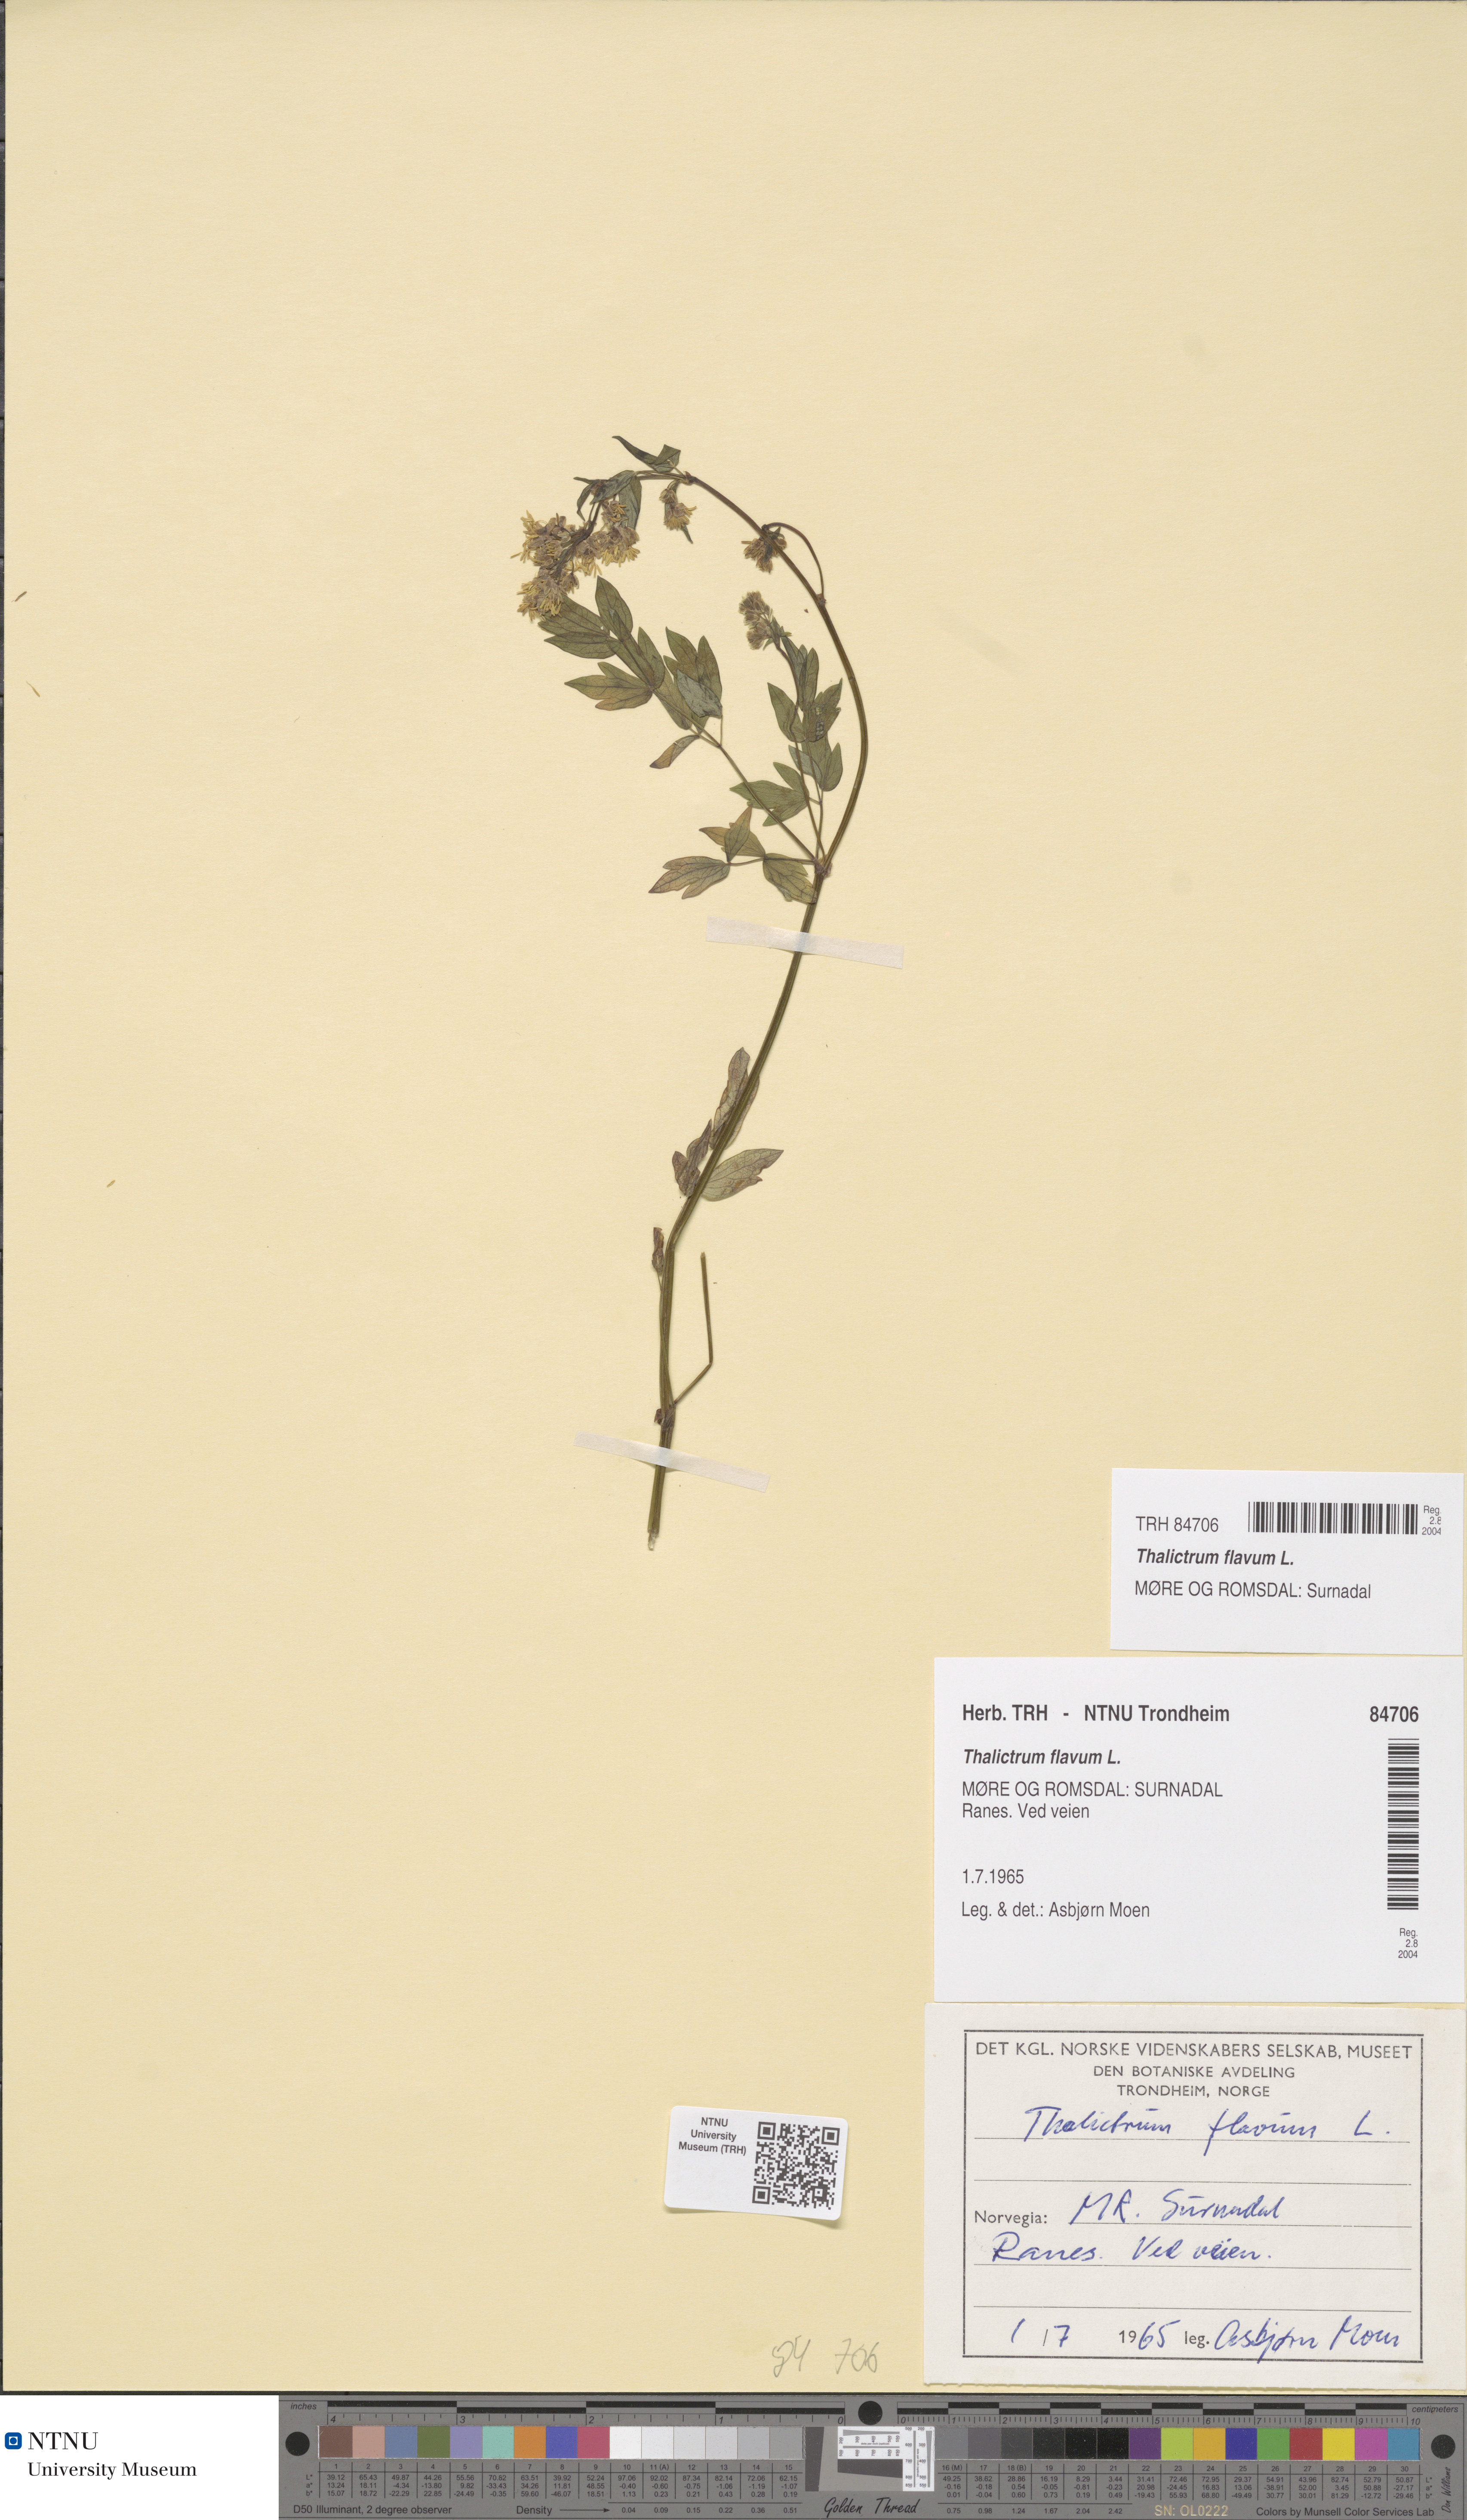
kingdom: Plantae
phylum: Tracheophyta
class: Magnoliopsida
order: Ranunculales
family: Ranunculaceae
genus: Thalictrum
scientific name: Thalictrum flavum
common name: Common meadow-rue
